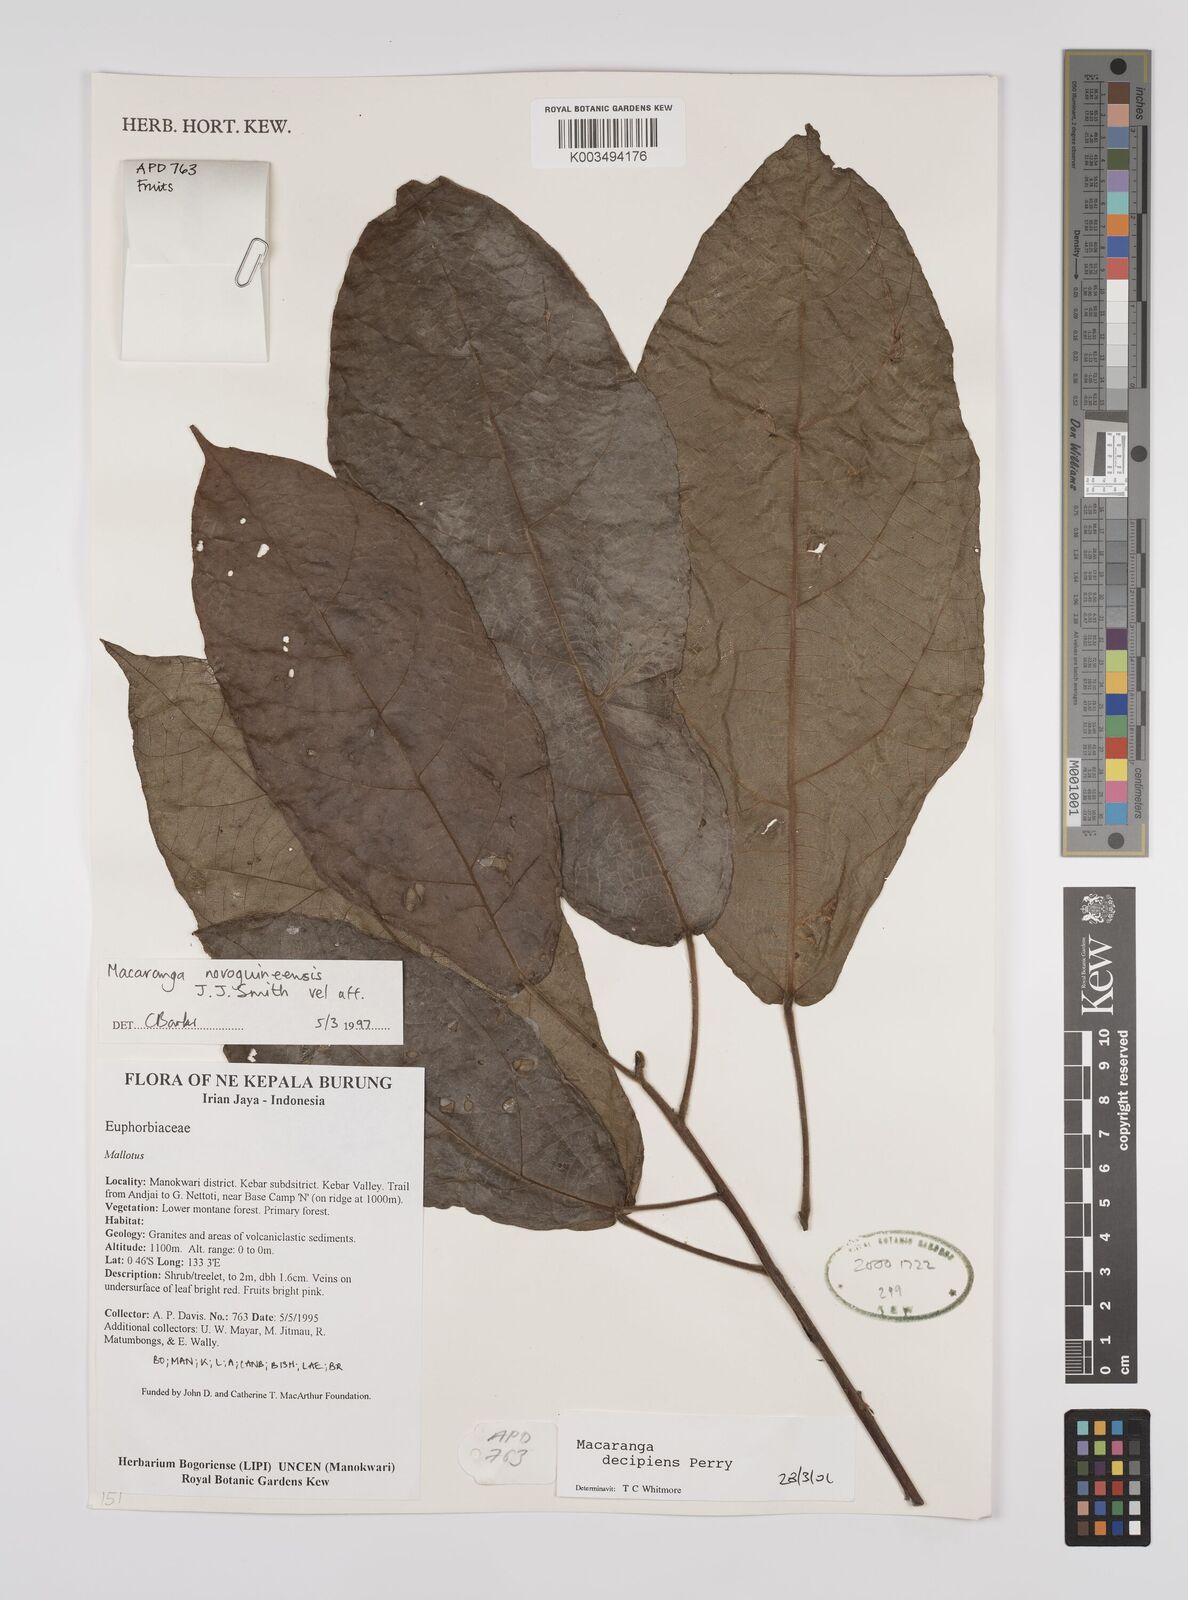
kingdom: Plantae
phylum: Tracheophyta
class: Magnoliopsida
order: Malpighiales
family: Euphorbiaceae
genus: Macaranga
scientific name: Macaranga decipiens
